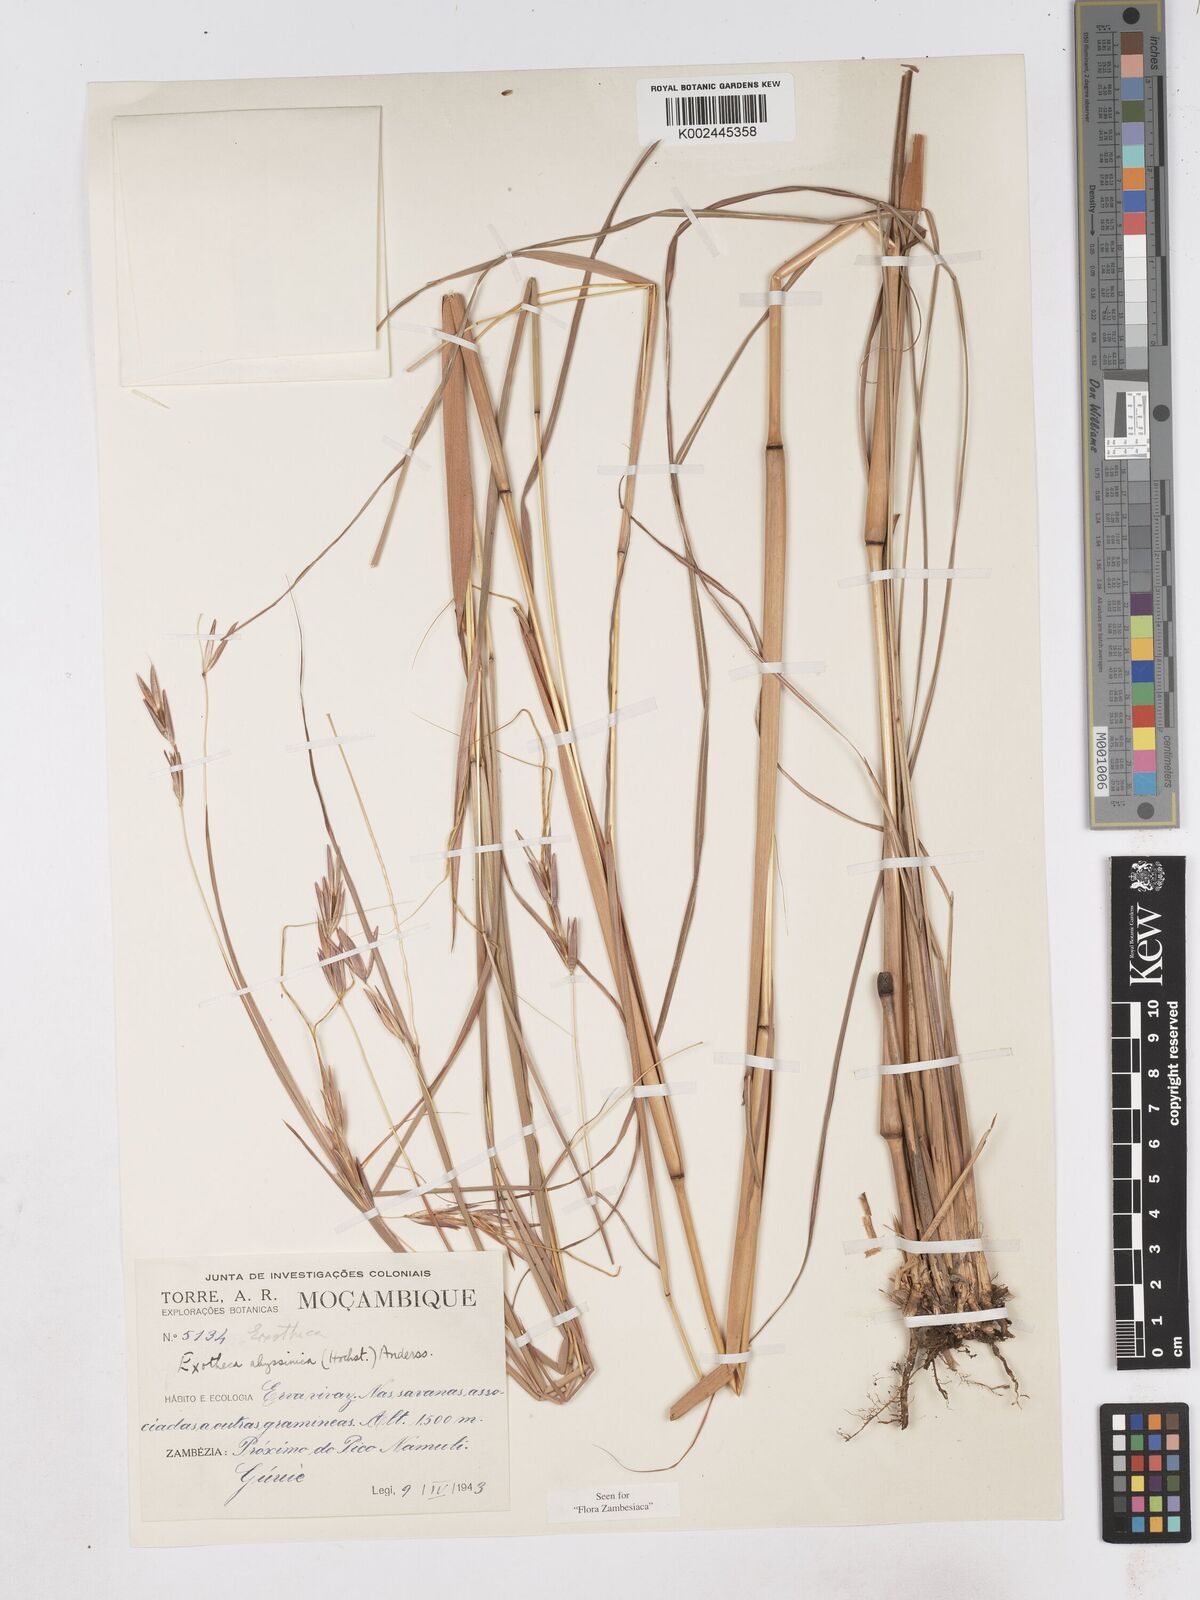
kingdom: Plantae
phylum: Tracheophyta
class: Liliopsida
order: Poales
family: Poaceae
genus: Exotheca
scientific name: Exotheca abyssinica
